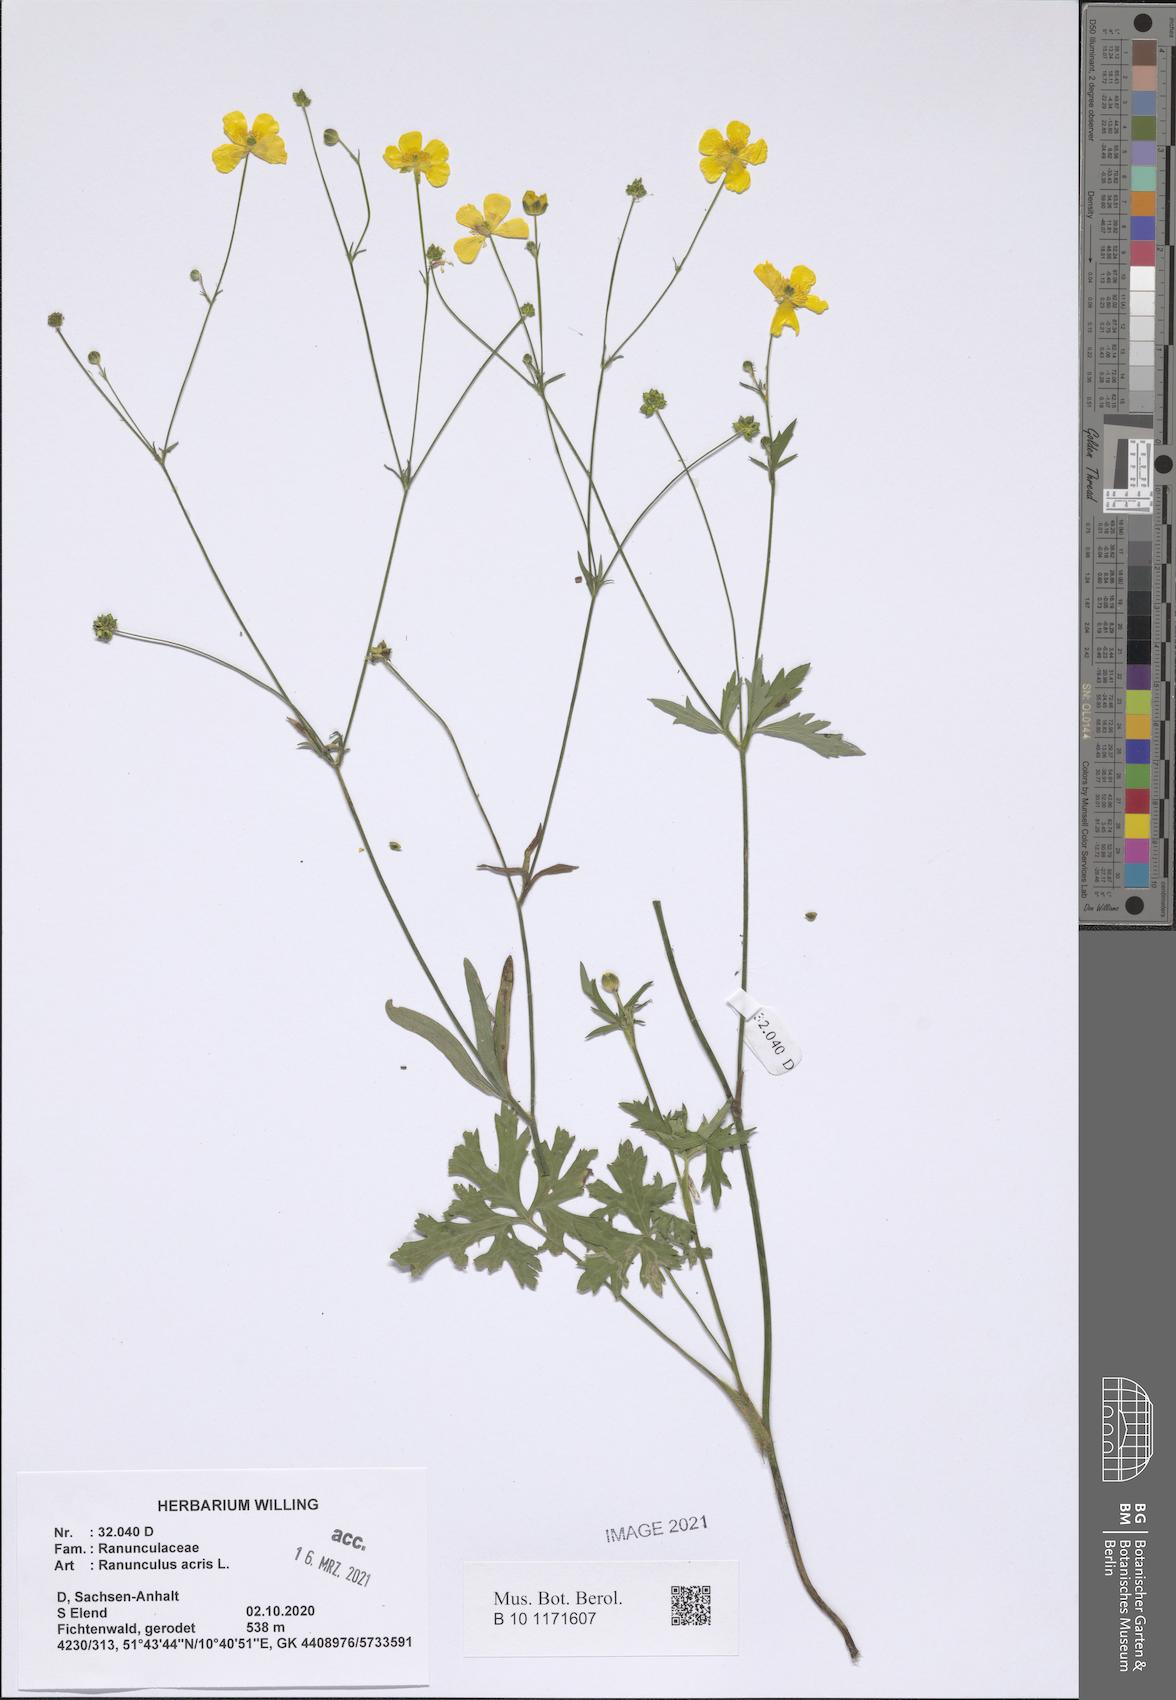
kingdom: Plantae
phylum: Tracheophyta
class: Magnoliopsida
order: Ranunculales
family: Ranunculaceae
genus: Ranunculus
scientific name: Ranunculus acris
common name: Meadow buttercup
